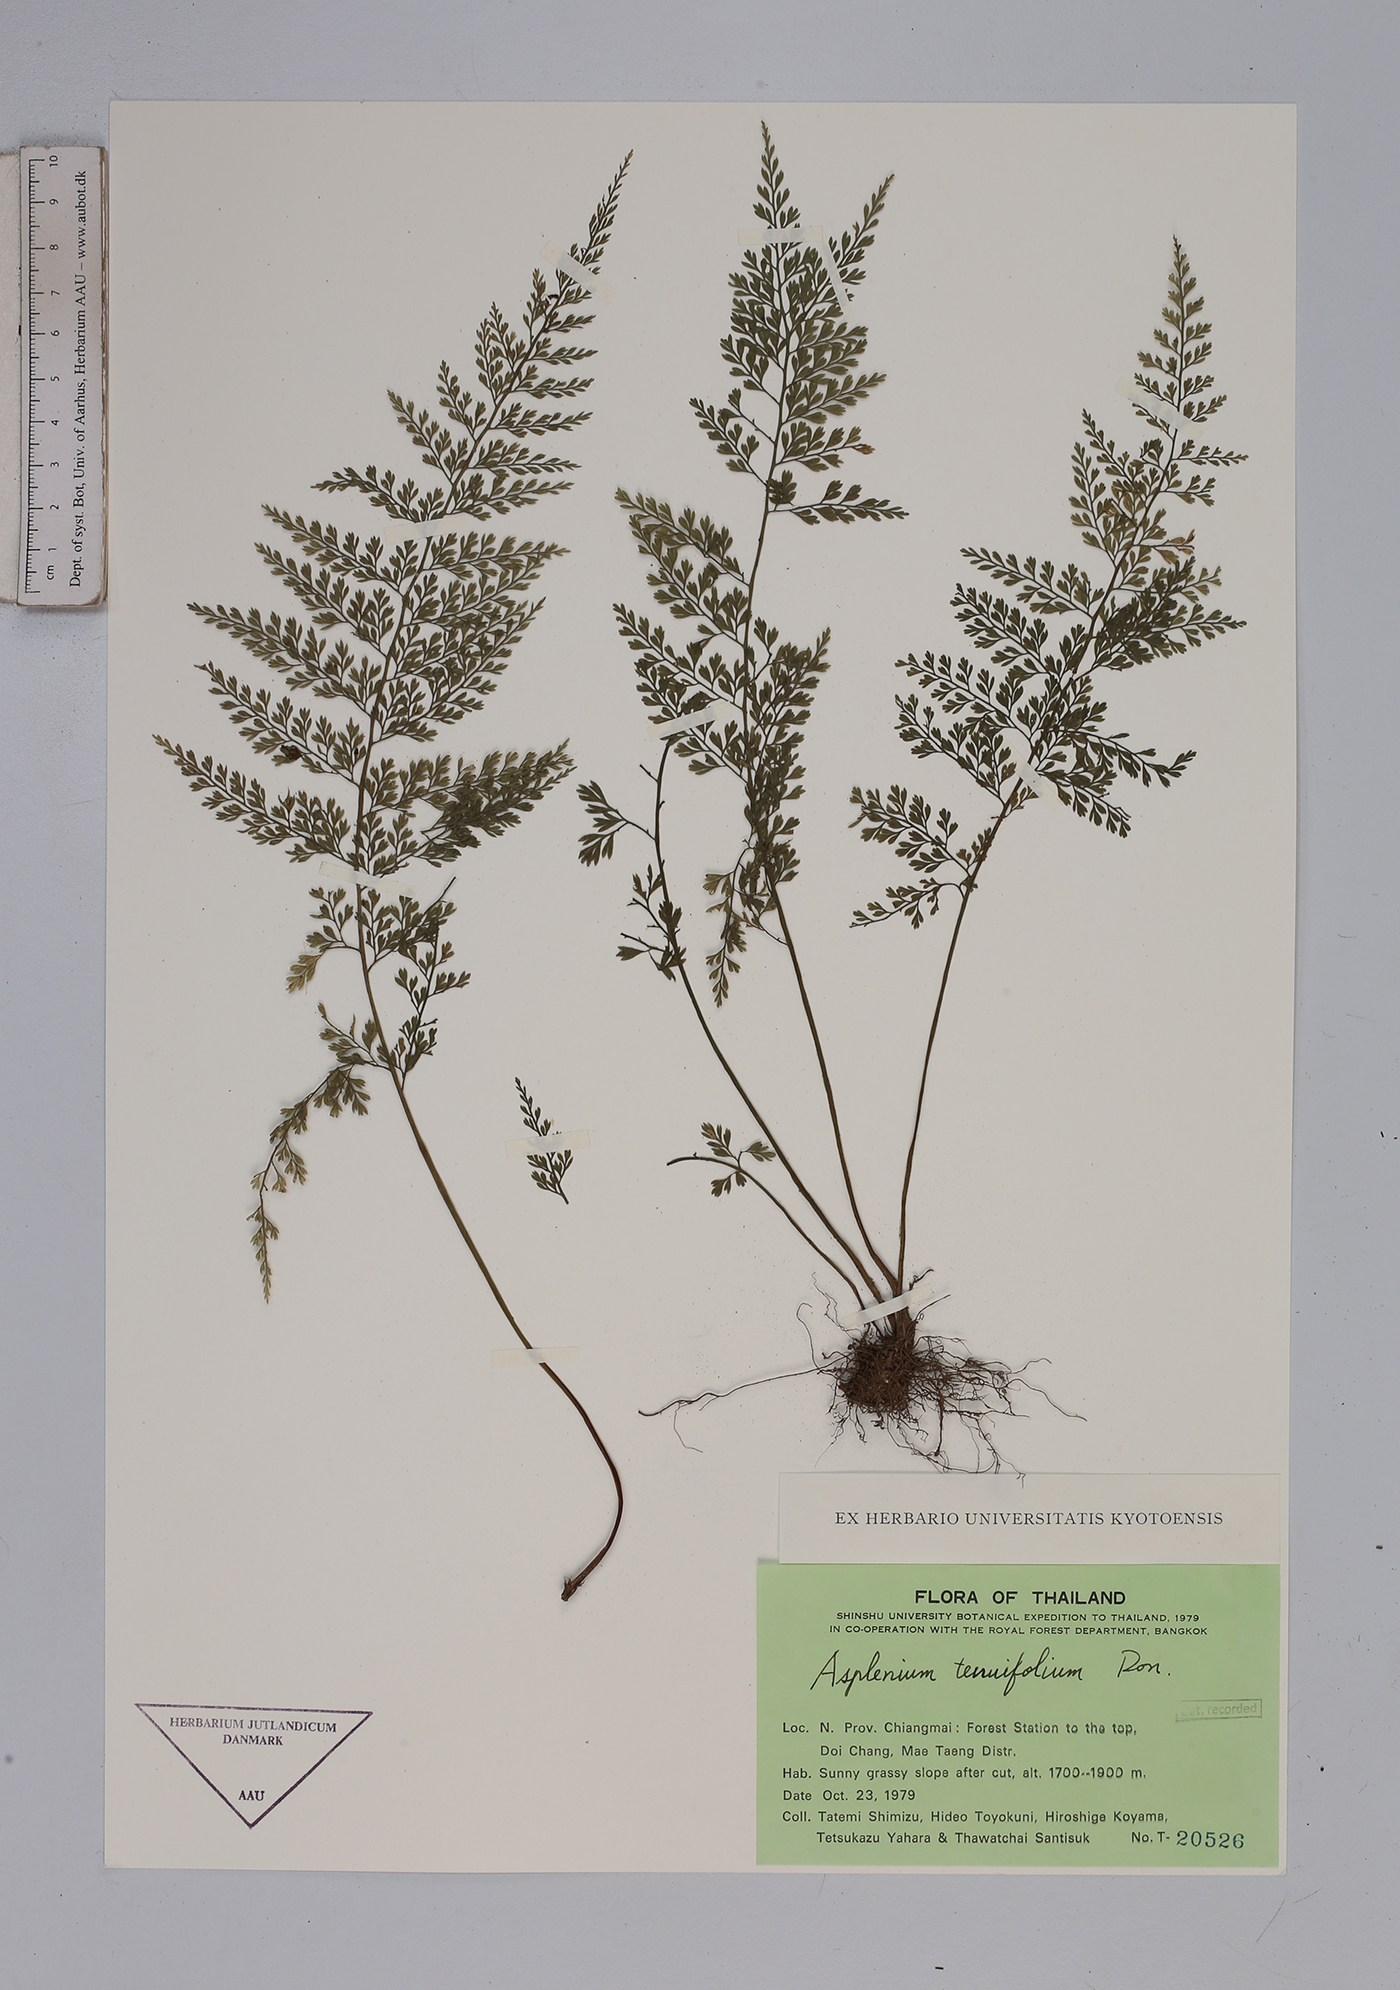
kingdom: Plantae
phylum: Tracheophyta
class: Polypodiopsida
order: Polypodiales
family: Aspleniaceae
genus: Asplenium
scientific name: Asplenium tenuifolium
